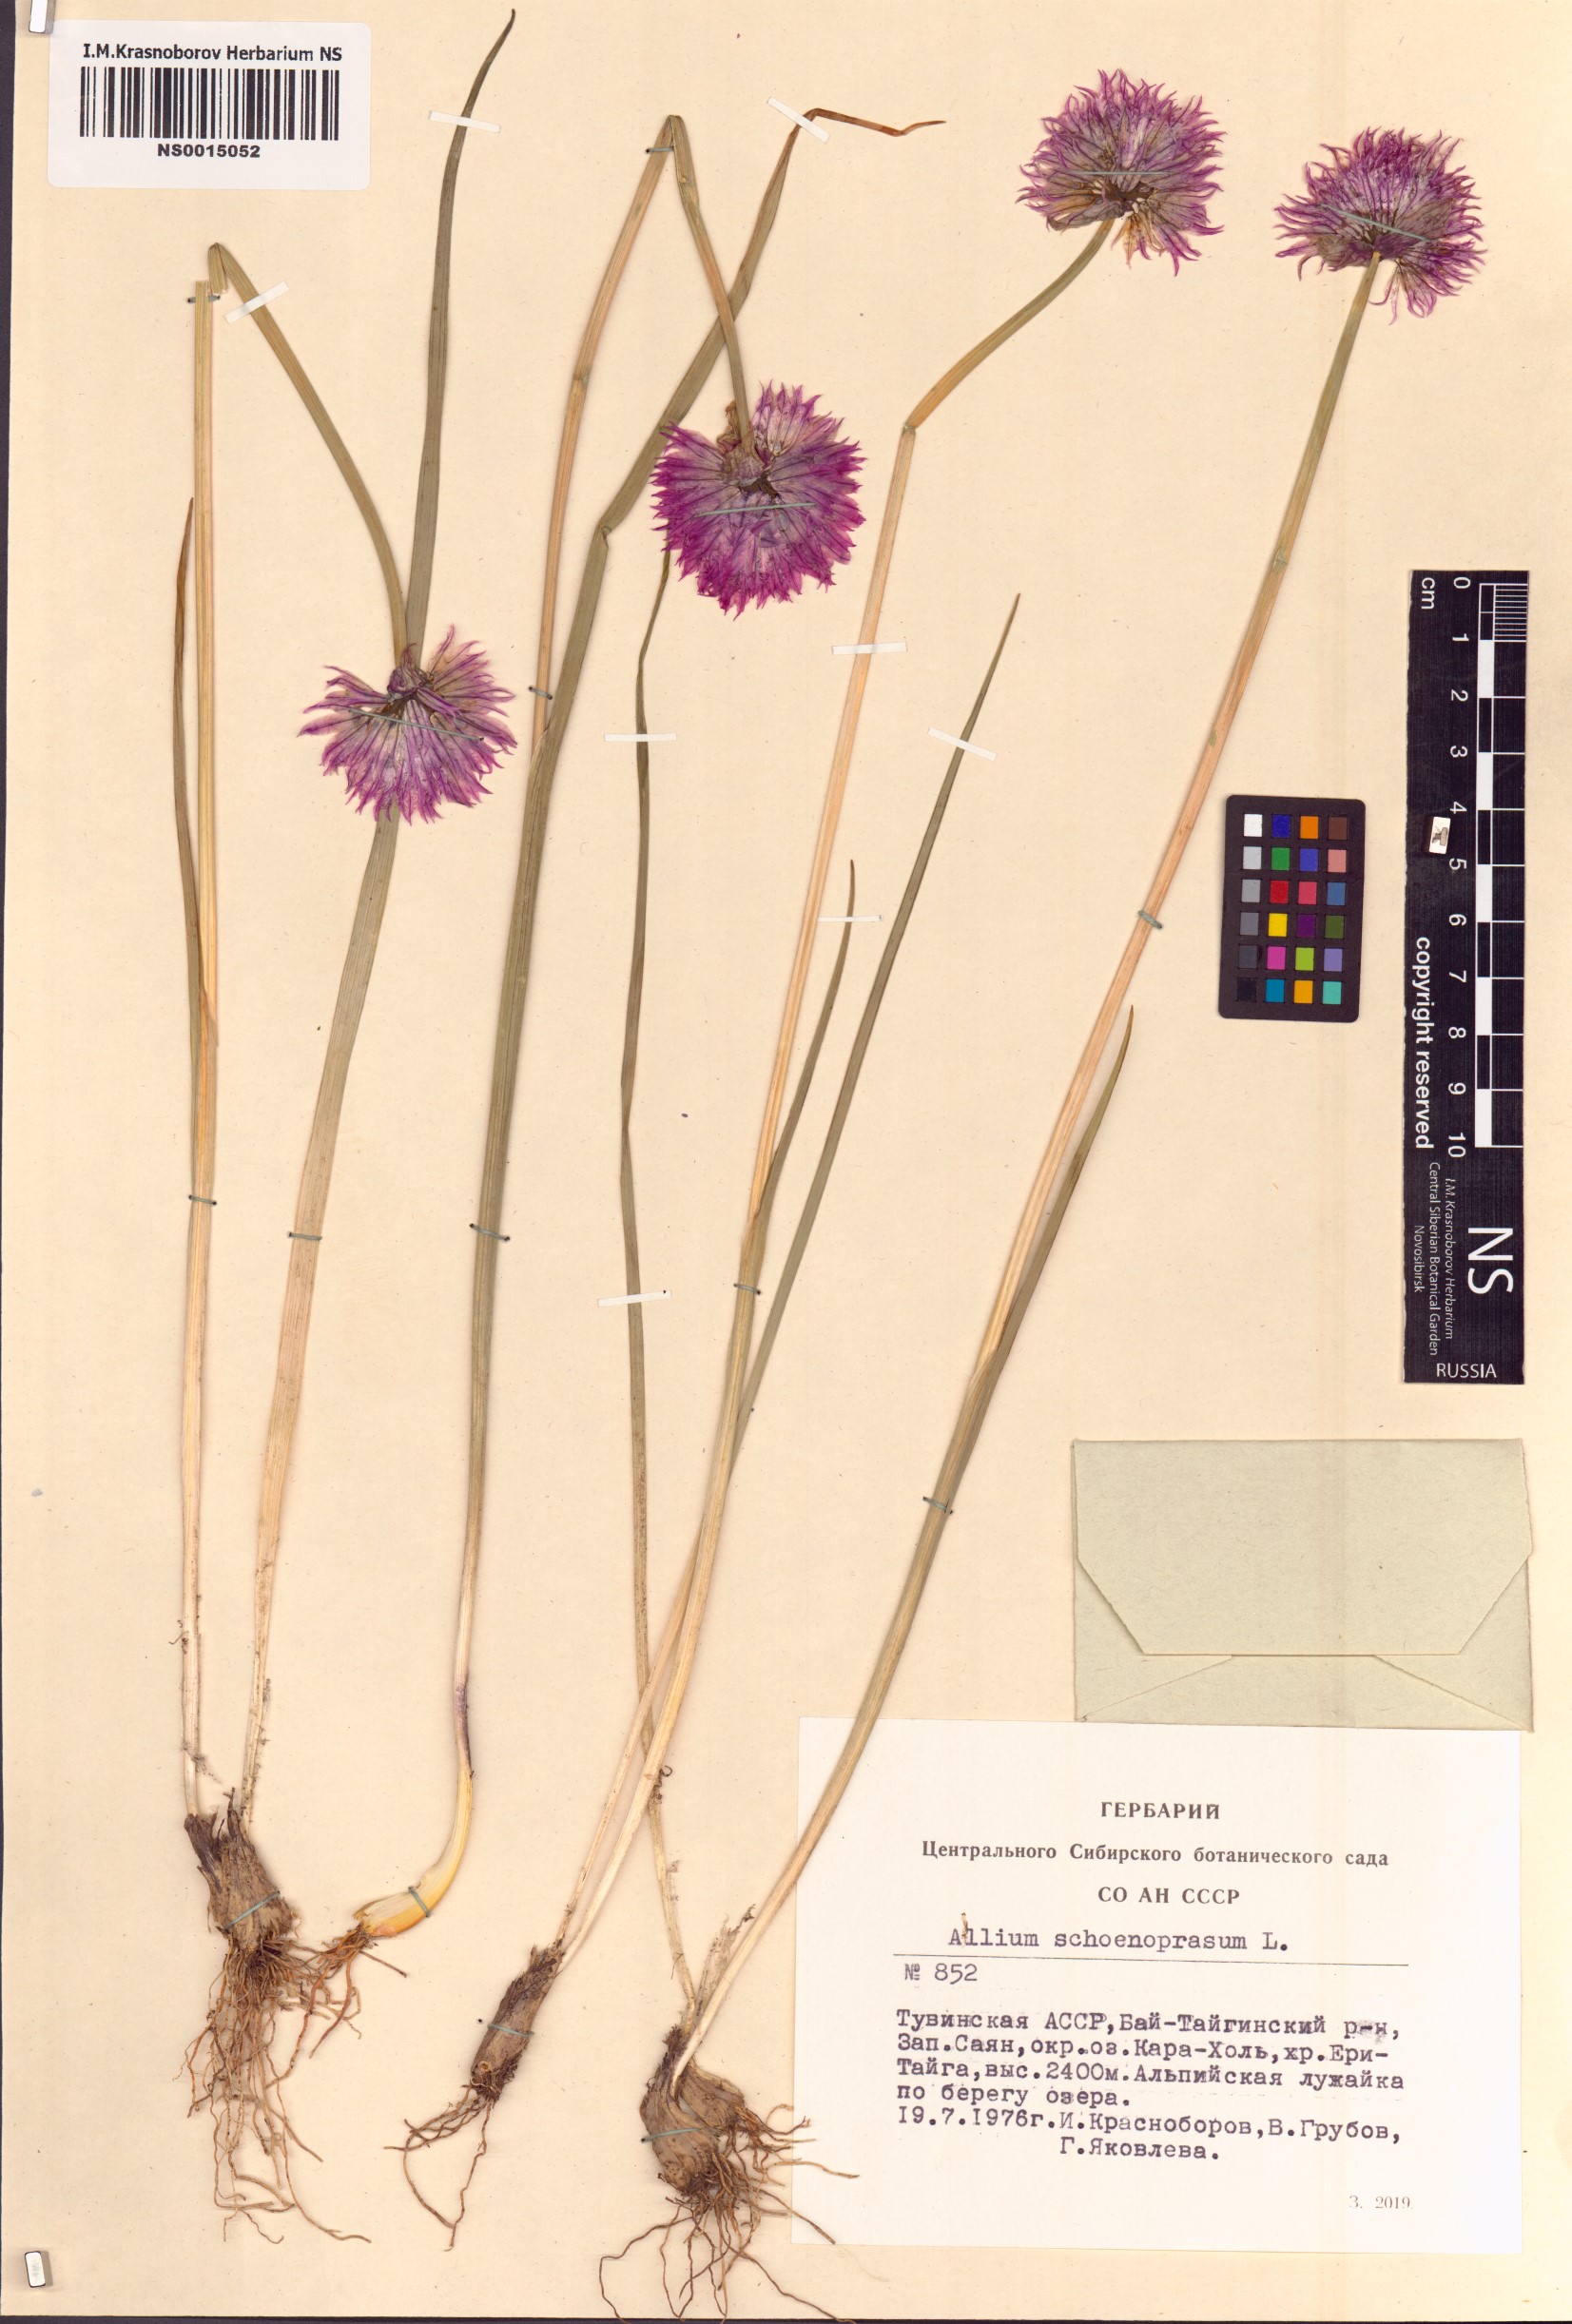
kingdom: Plantae
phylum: Tracheophyta
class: Liliopsida
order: Asparagales
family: Amaryllidaceae
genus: Allium
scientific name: Allium schoenoprasum
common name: Chives
